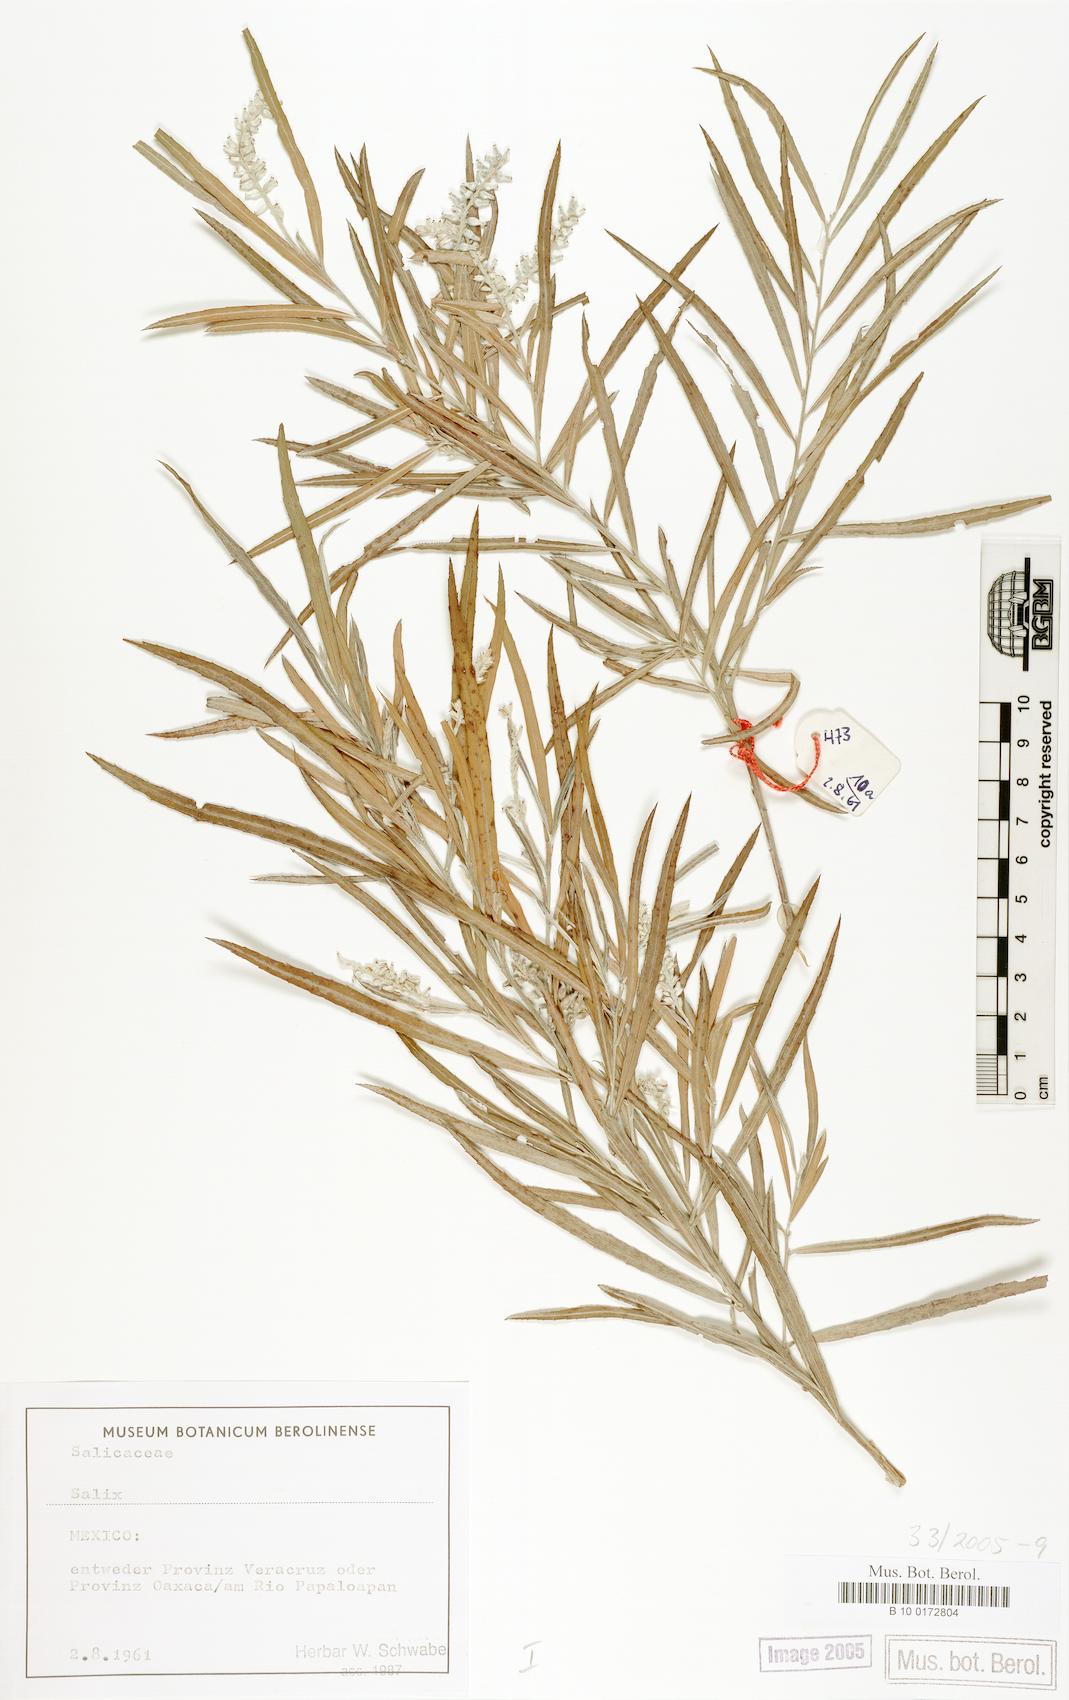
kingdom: Plantae
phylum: Tracheophyta
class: Magnoliopsida
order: Malpighiales
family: Salicaceae
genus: Salix
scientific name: Salix
